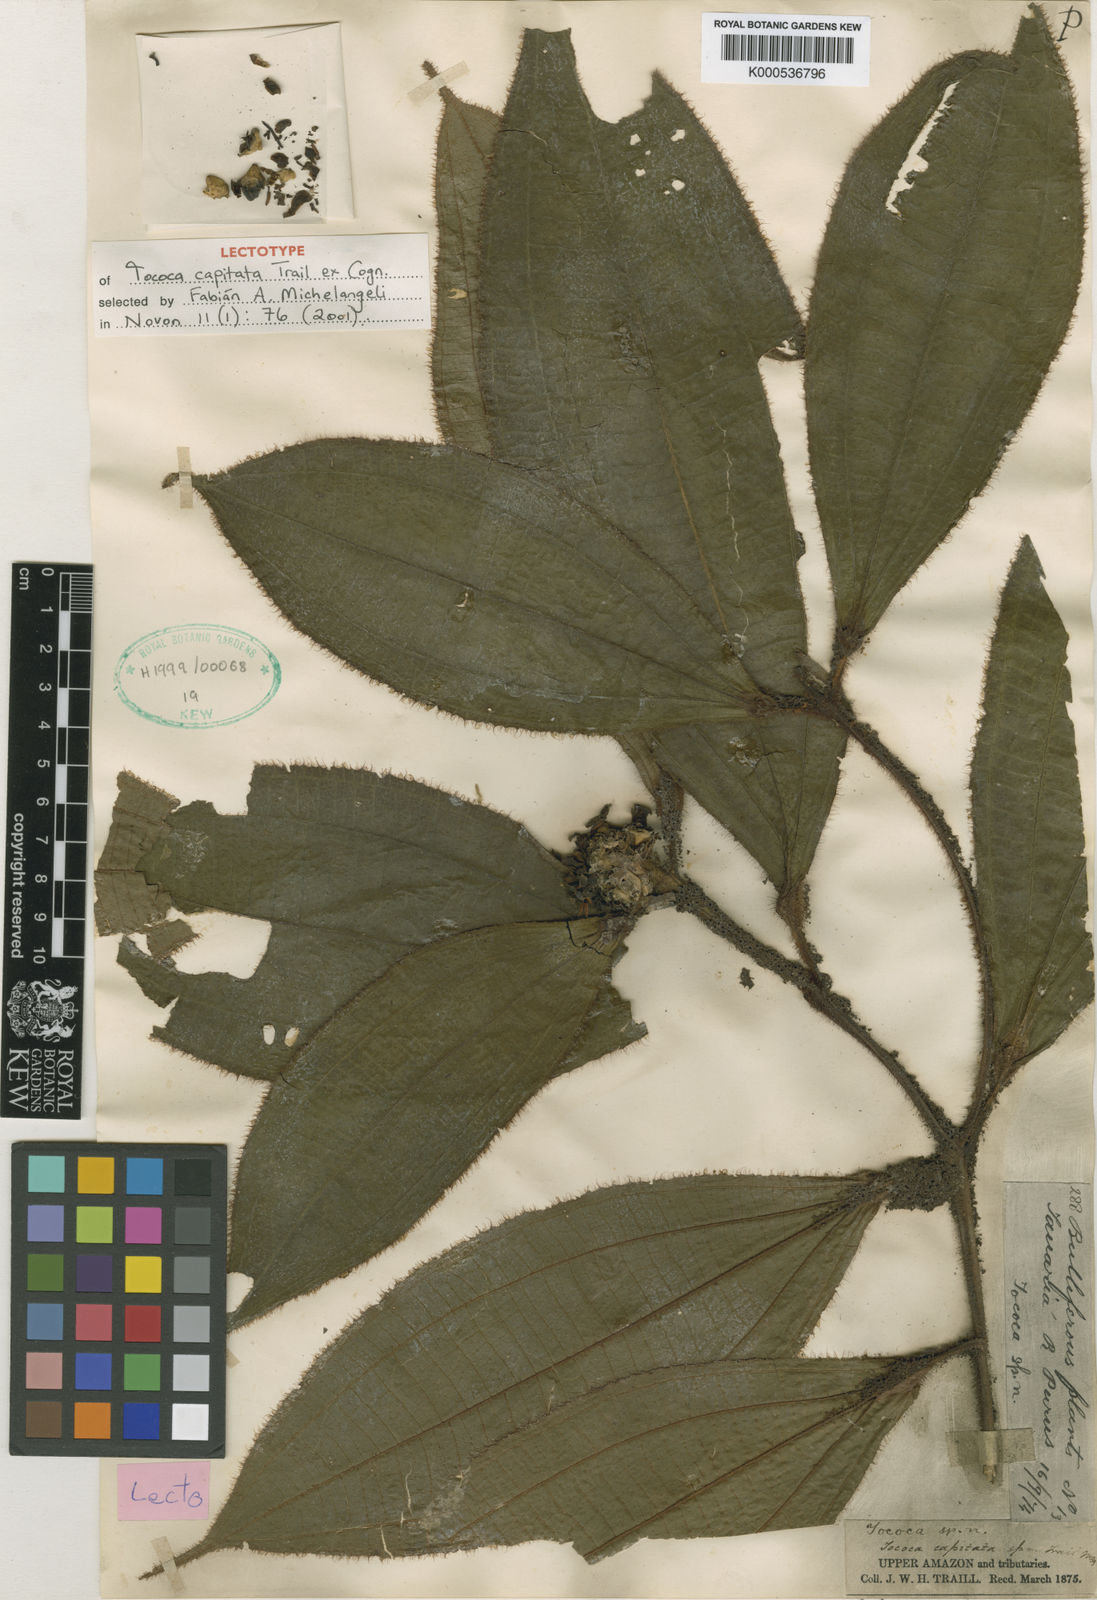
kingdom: Plantae
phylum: Tracheophyta
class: Magnoliopsida
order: Myrtales
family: Melastomataceae
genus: Miconia
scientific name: Miconia
